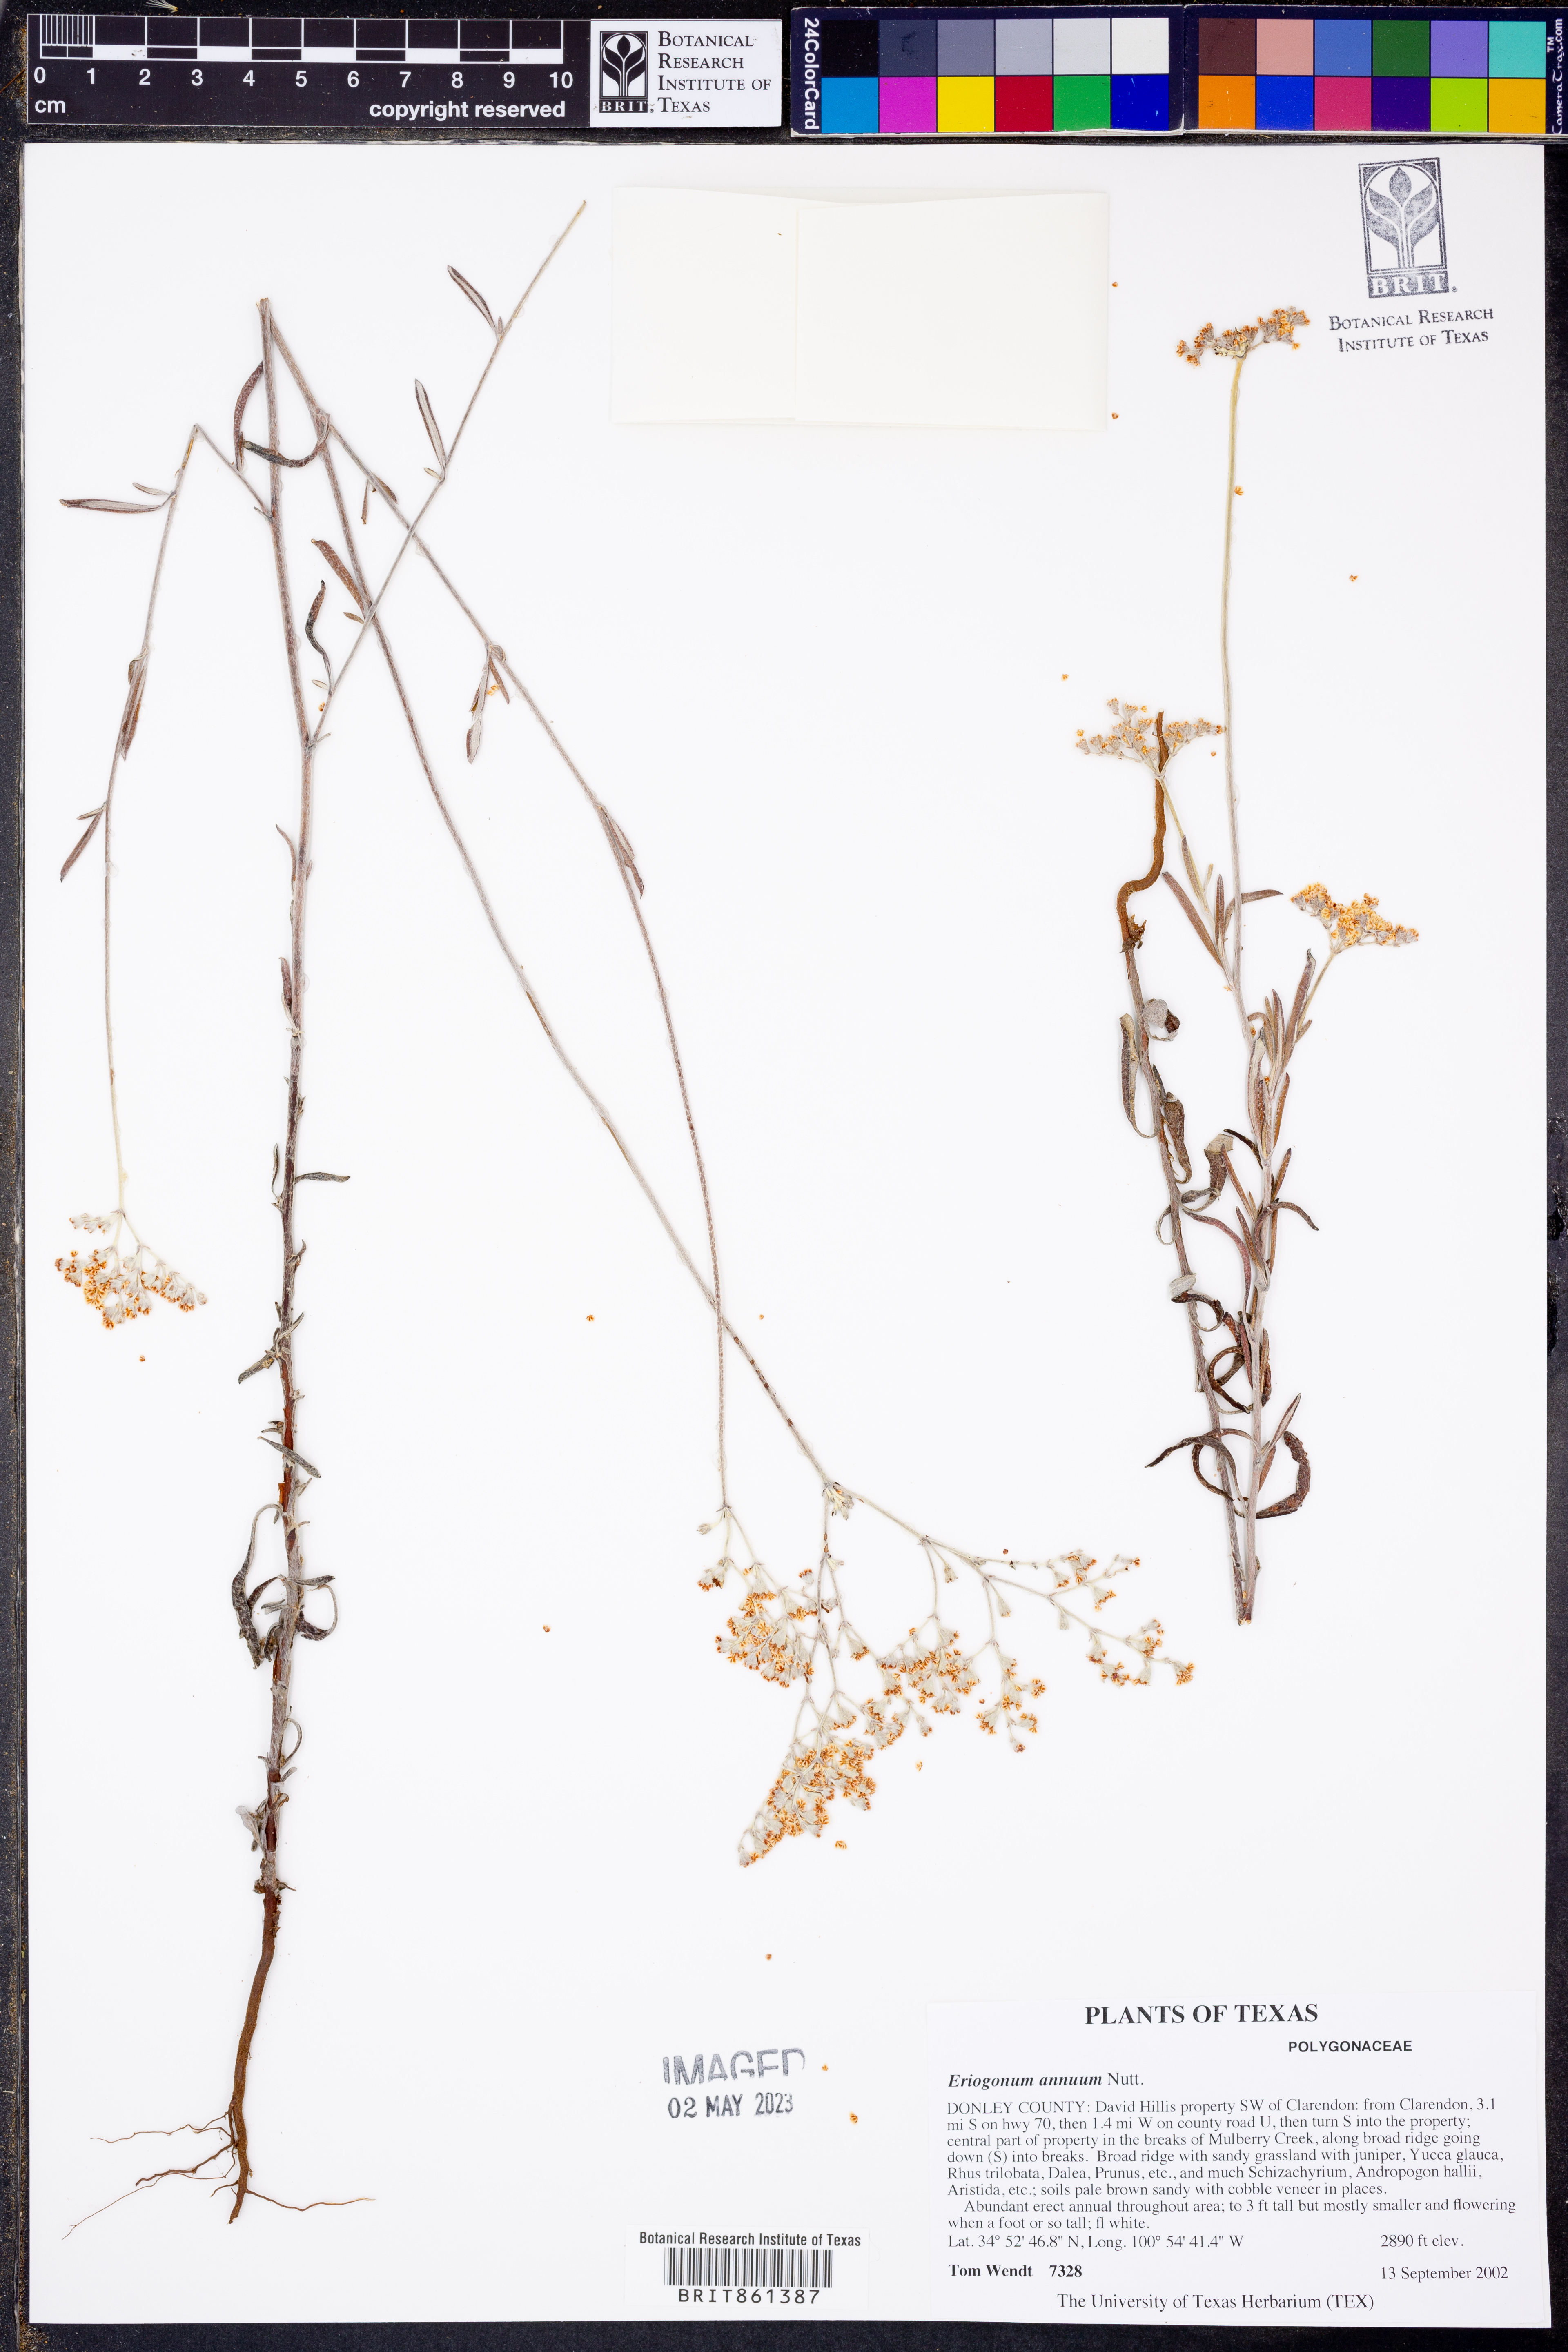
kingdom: Plantae
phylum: Tracheophyta
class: Magnoliopsida
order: Caryophyllales
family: Polygonaceae
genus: Eriogonum
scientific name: Eriogonum annuum
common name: Annual wild buckwheat
